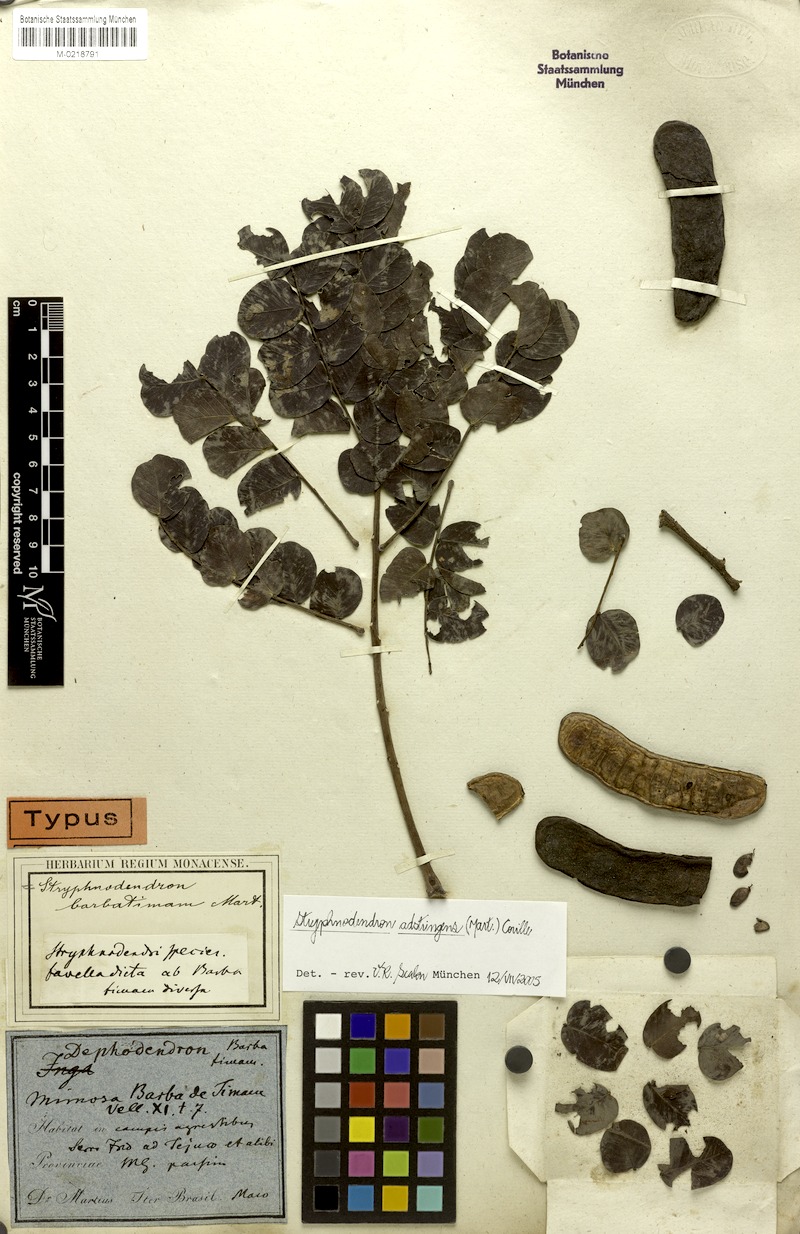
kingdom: Plantae
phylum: Tracheophyta
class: Magnoliopsida
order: Fabales
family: Fabaceae
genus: Stryphnodendron
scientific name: Stryphnodendron adstringens
